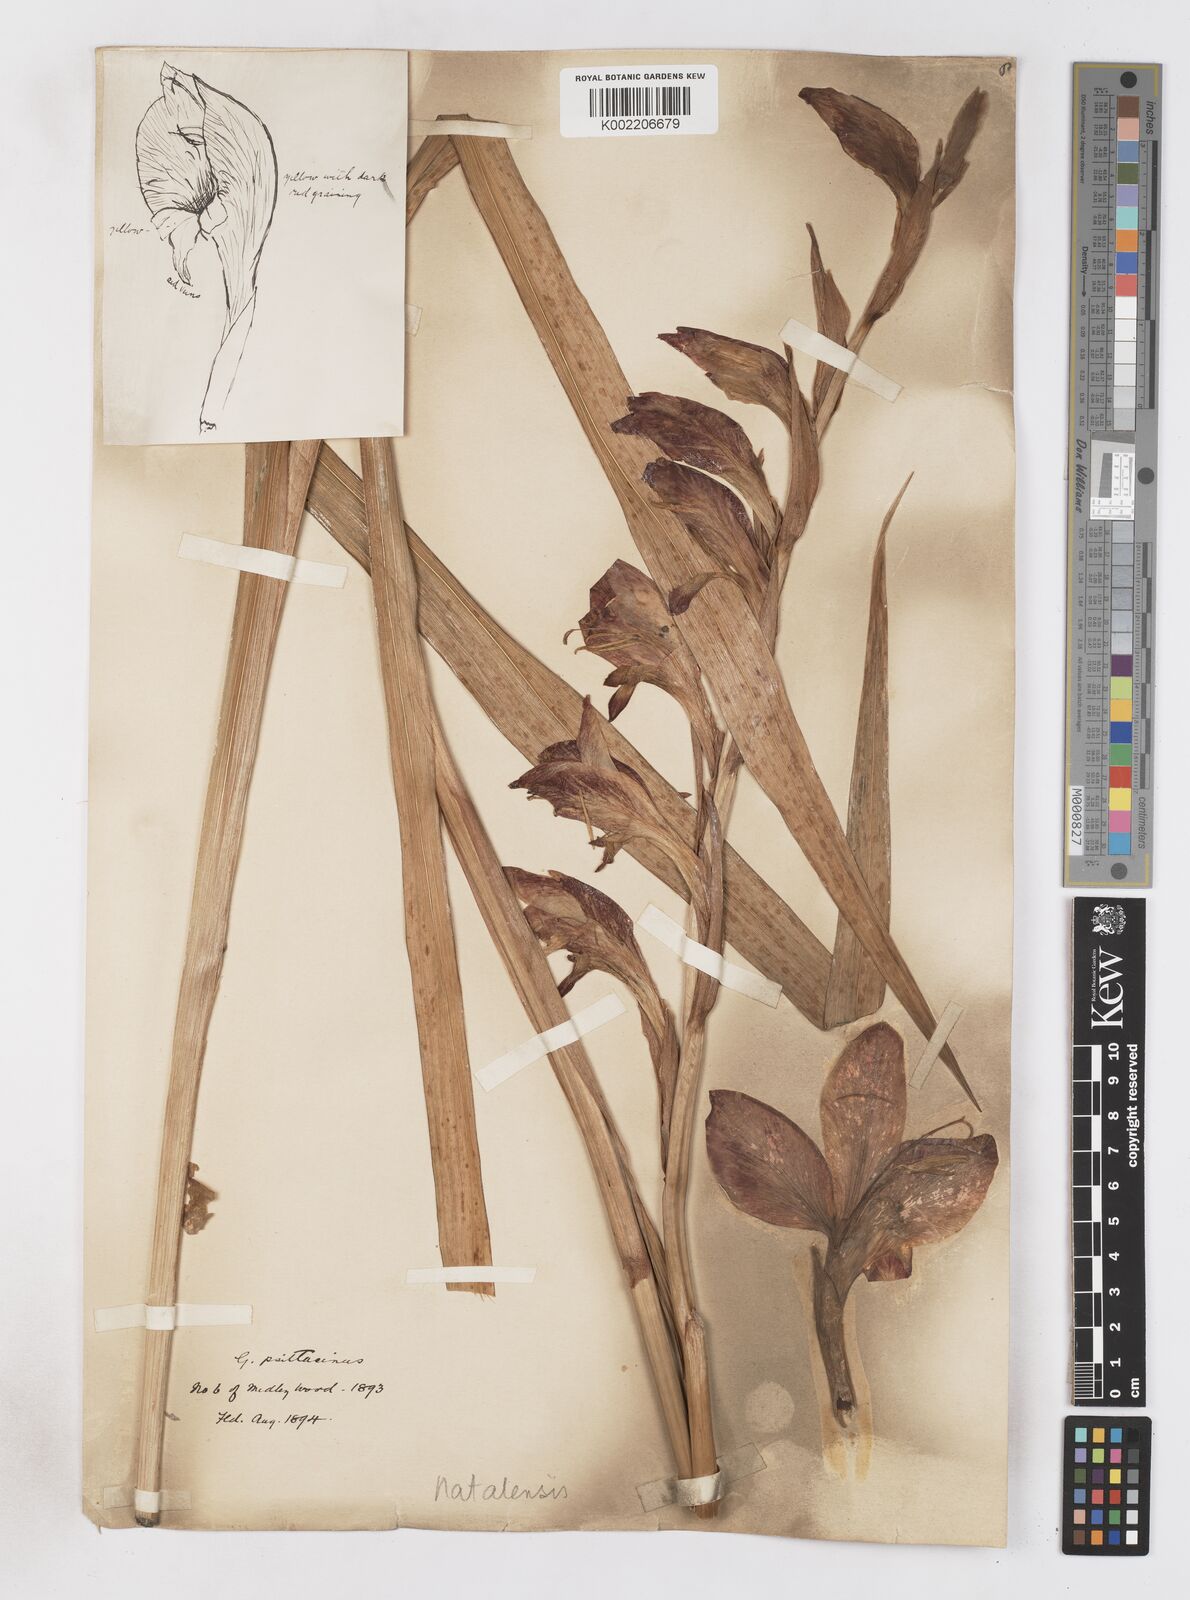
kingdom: Plantae
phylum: Tracheophyta
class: Liliopsida
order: Asparagales
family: Iridaceae
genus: Gladiolus
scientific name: Gladiolus dalenii
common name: Cornflag
